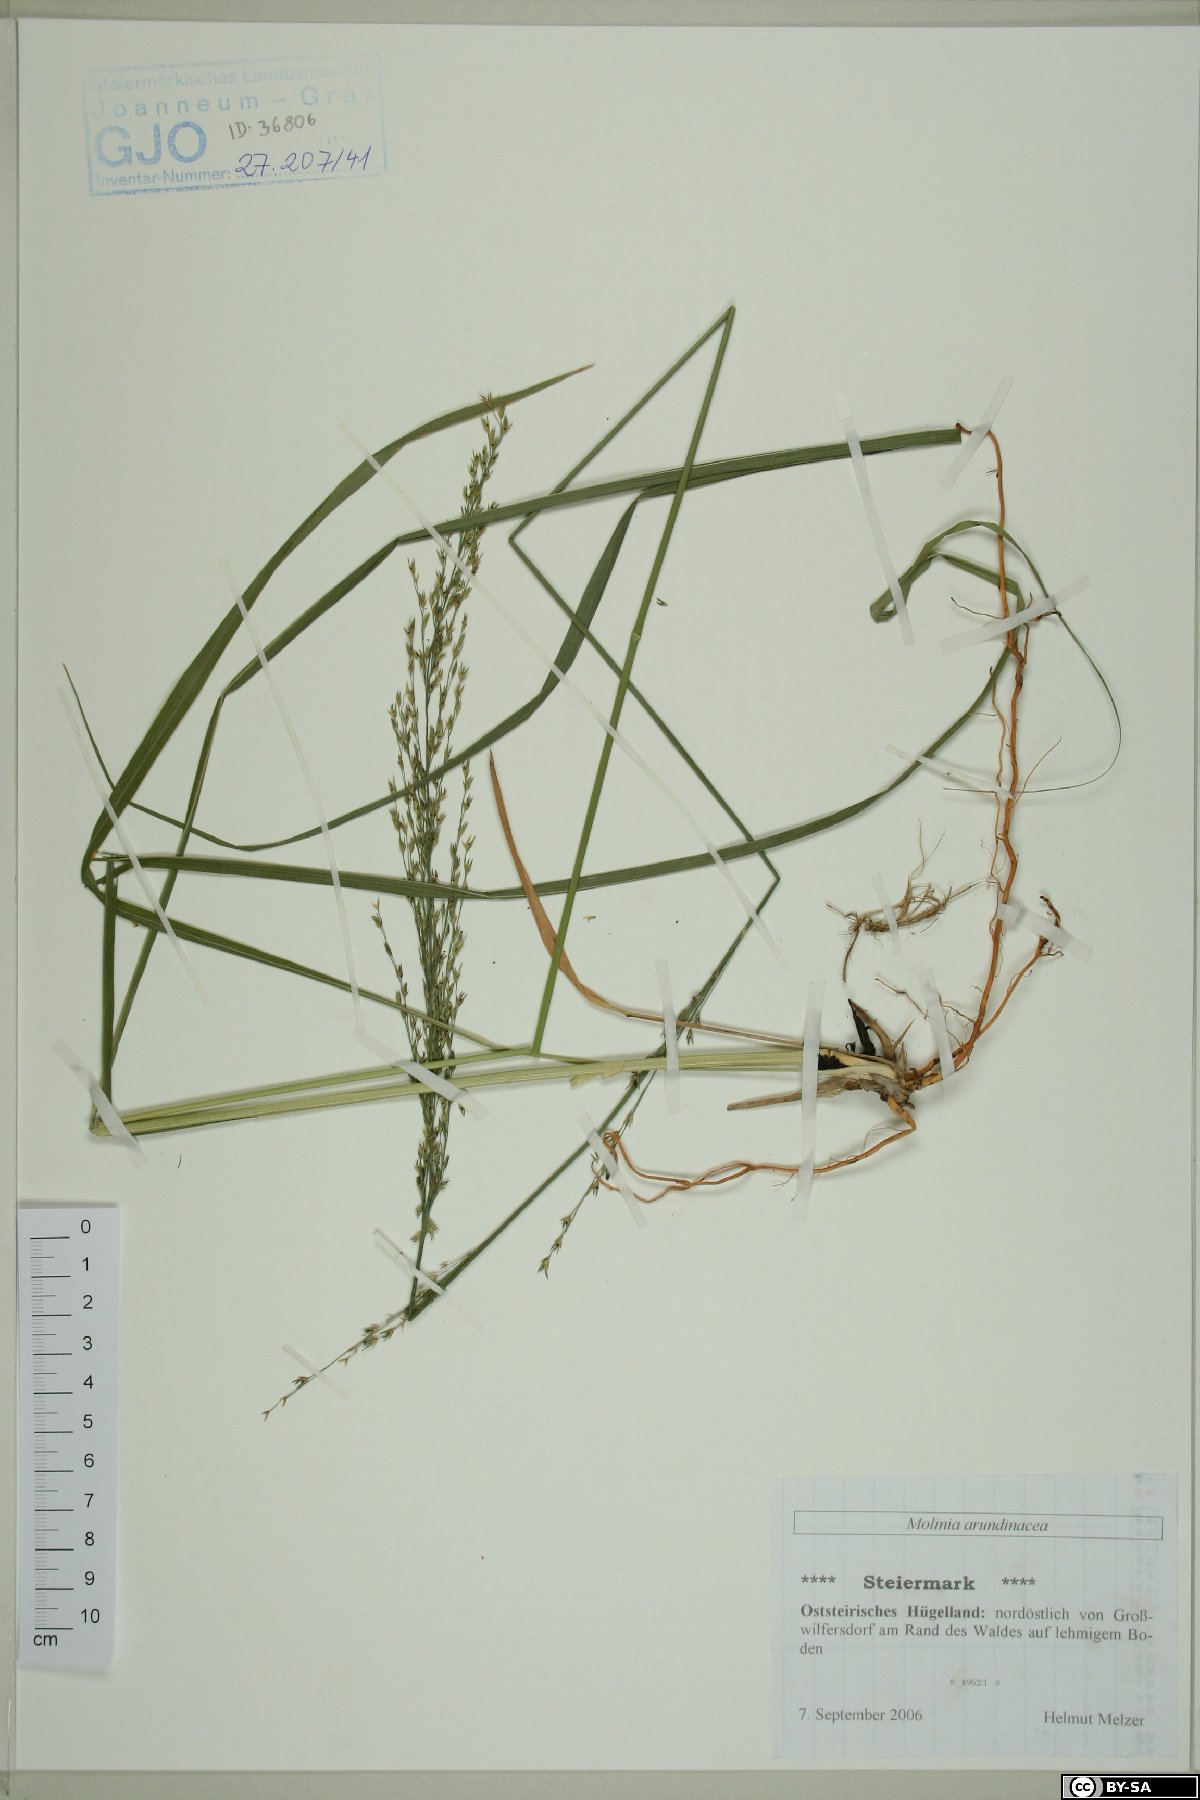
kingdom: Plantae
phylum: Tracheophyta
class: Liliopsida
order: Poales
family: Poaceae
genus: Molinia
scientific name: Molinia arundinacea
